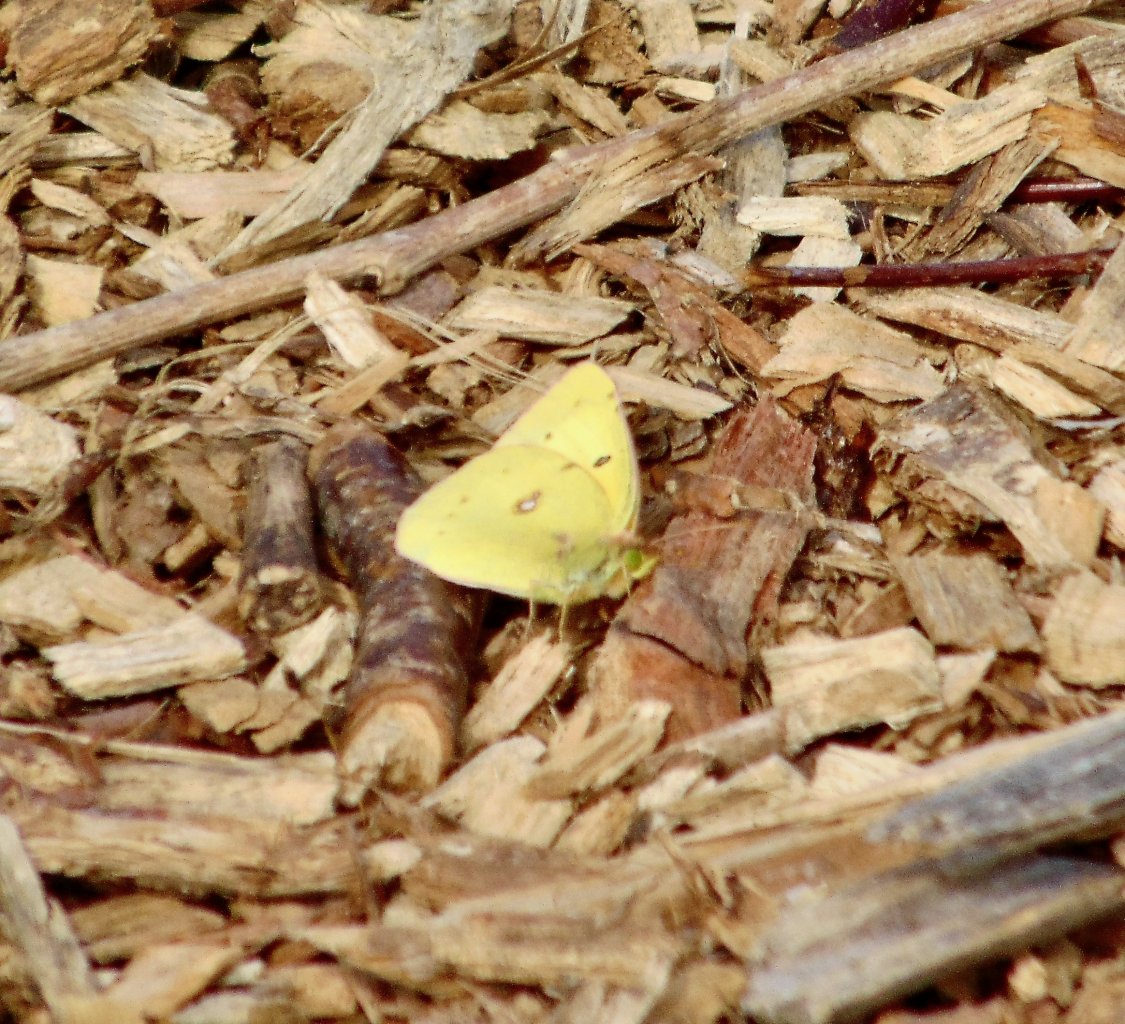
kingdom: Animalia
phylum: Arthropoda
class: Insecta
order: Lepidoptera
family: Pieridae
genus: Colias
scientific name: Colias philodice
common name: Clouded Sulphur
